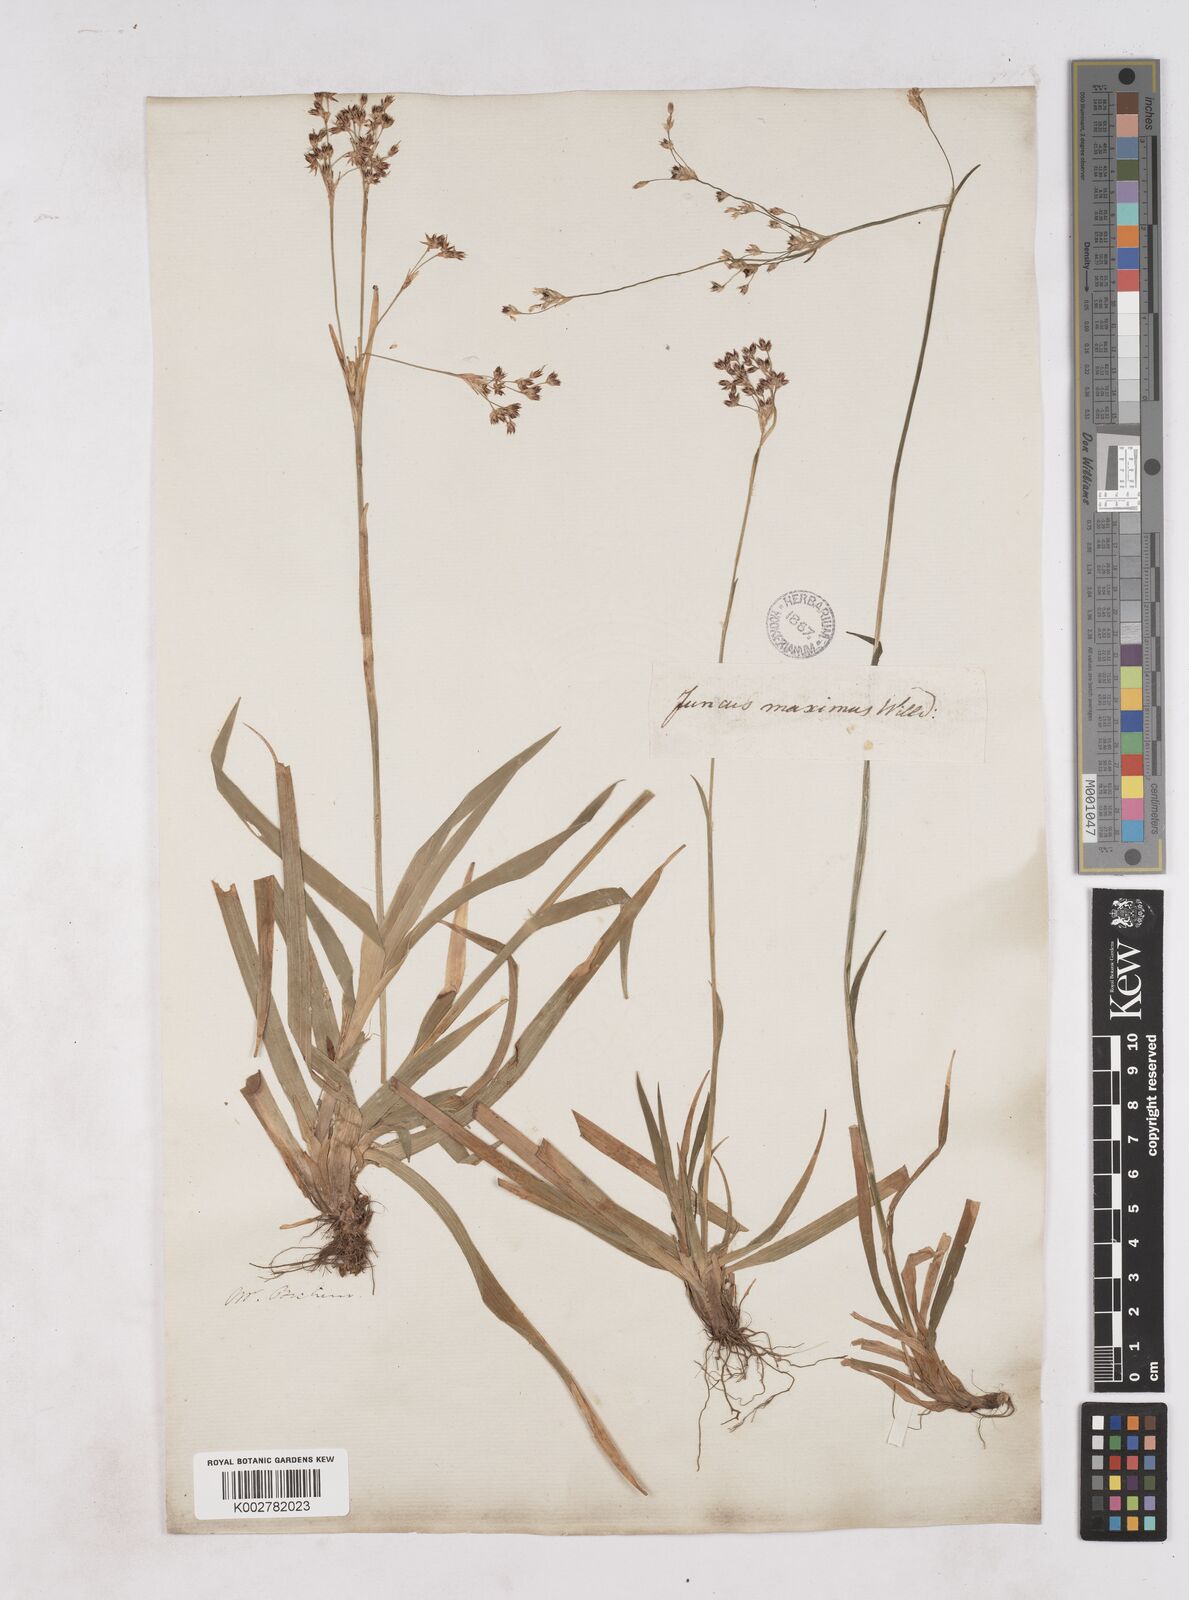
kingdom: Plantae
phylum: Tracheophyta
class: Liliopsida
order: Poales
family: Juncaceae
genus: Luzula
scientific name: Luzula sylvatica
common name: Great wood-rush
